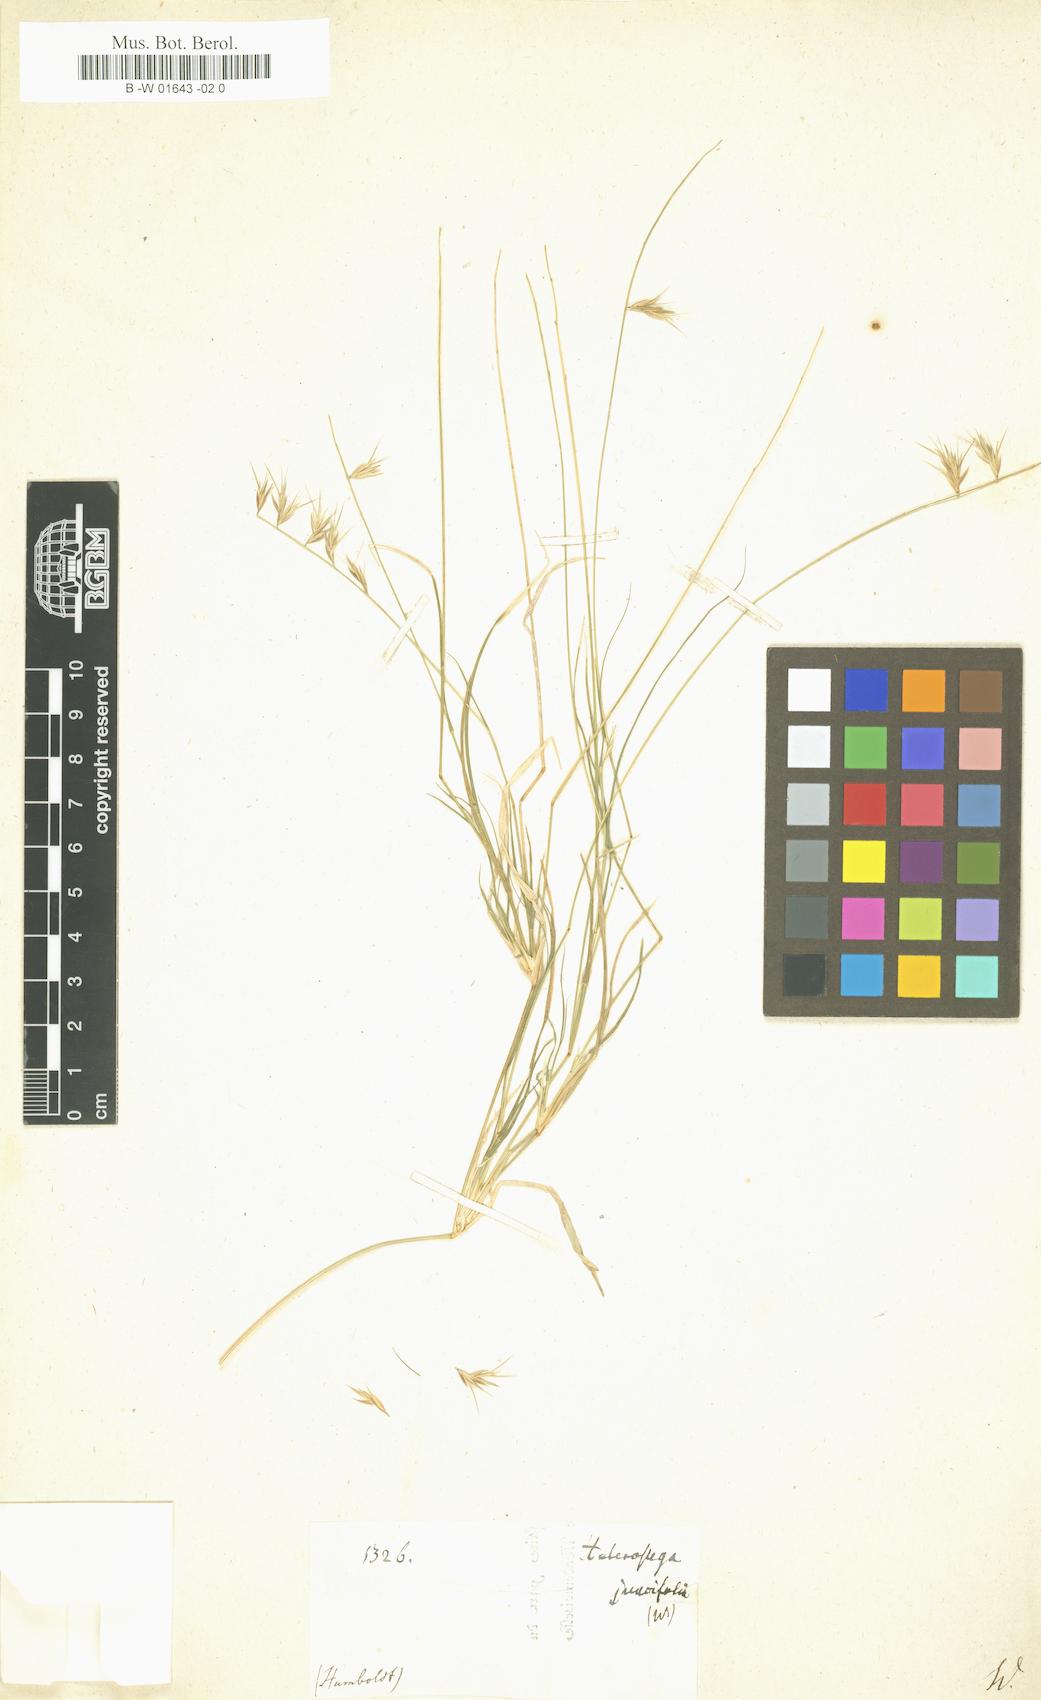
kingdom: Plantae
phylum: Tracheophyta
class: Liliopsida
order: Poales
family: Poaceae
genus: Heterostega
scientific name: Heterostega
